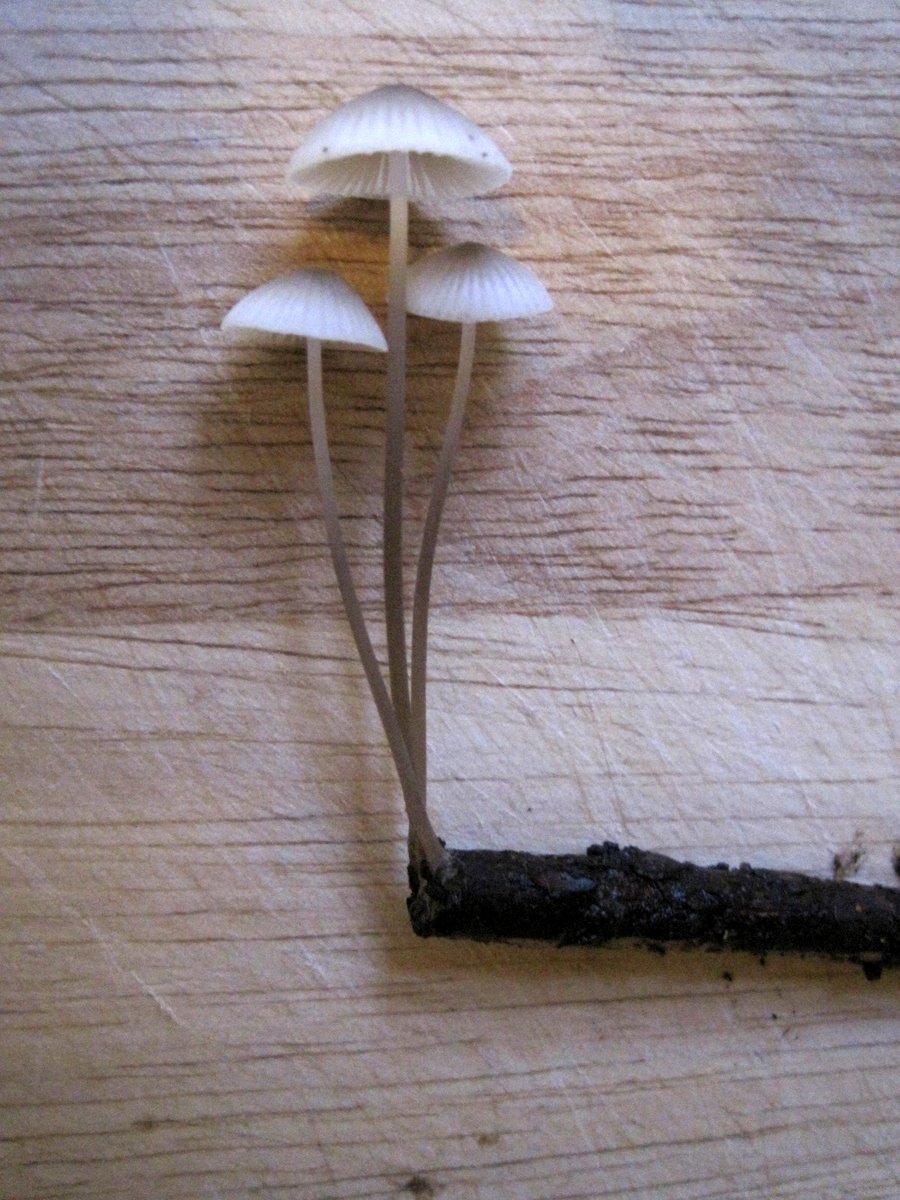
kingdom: Fungi
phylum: Basidiomycota
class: Agaricomycetes
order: Agaricales
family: Mycenaceae
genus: Mycena
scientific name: Mycena vitilis
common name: blankstokket huesvamp
